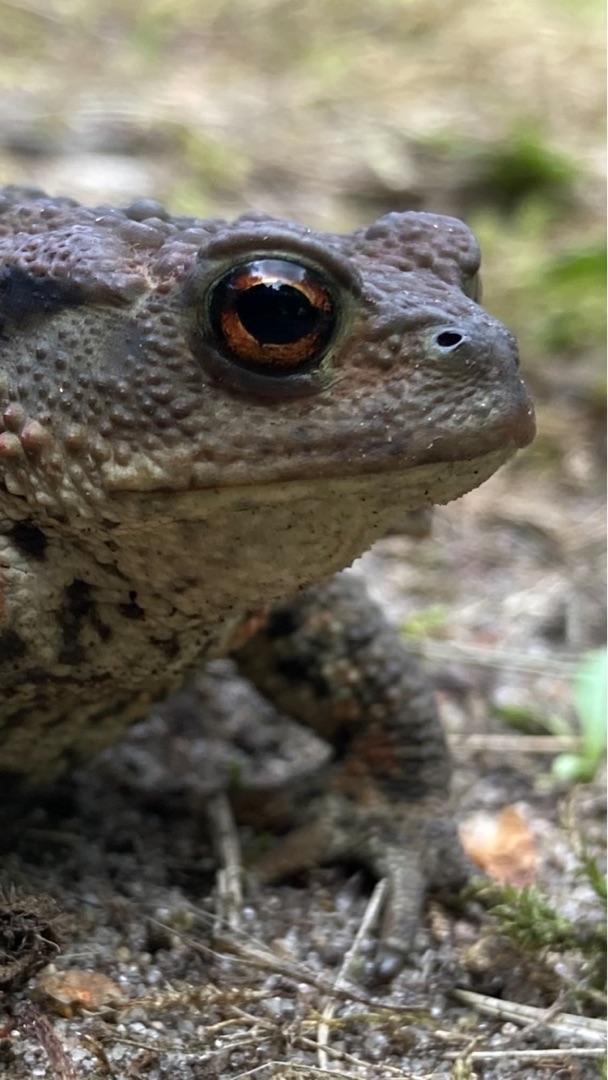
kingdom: Animalia
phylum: Chordata
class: Amphibia
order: Anura
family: Bufonidae
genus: Bufo
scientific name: Bufo bufo
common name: Skrubtudse
